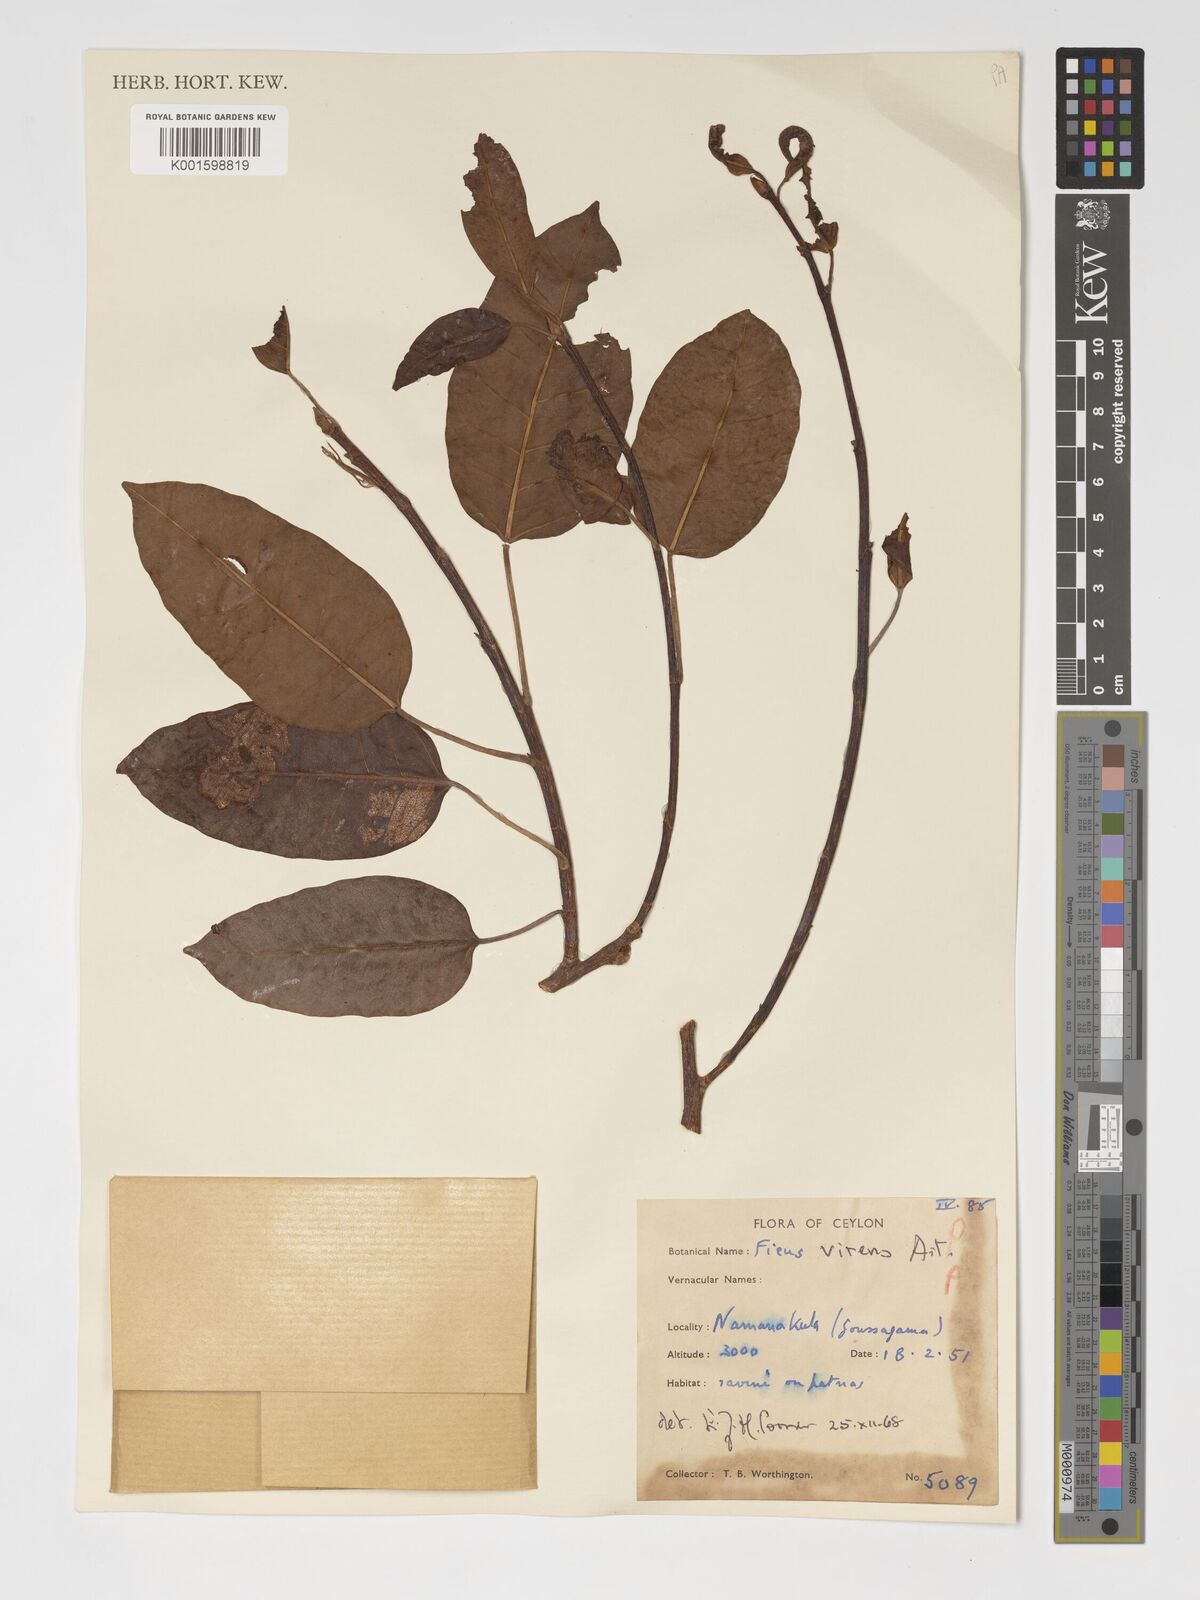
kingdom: Plantae
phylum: Tracheophyta
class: Magnoliopsida
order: Rosales
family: Moraceae
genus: Ficus
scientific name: Ficus virens
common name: Spotted fig
